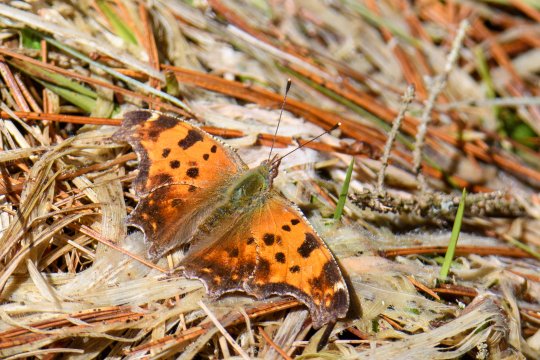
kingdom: Animalia
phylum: Arthropoda
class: Insecta
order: Lepidoptera
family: Nymphalidae
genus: Polygonia
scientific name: Polygonia comma
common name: Eastern Comma
